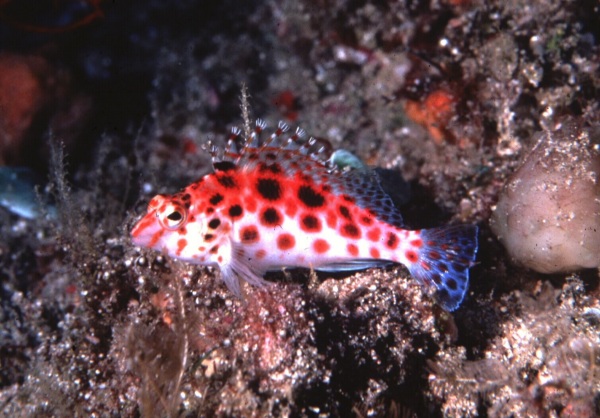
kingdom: Animalia
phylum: Chordata
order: Perciformes
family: Cirrhitidae
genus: Cirrhitichthys
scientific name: Cirrhitichthys oxycephalus
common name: Spotted hawkfish
